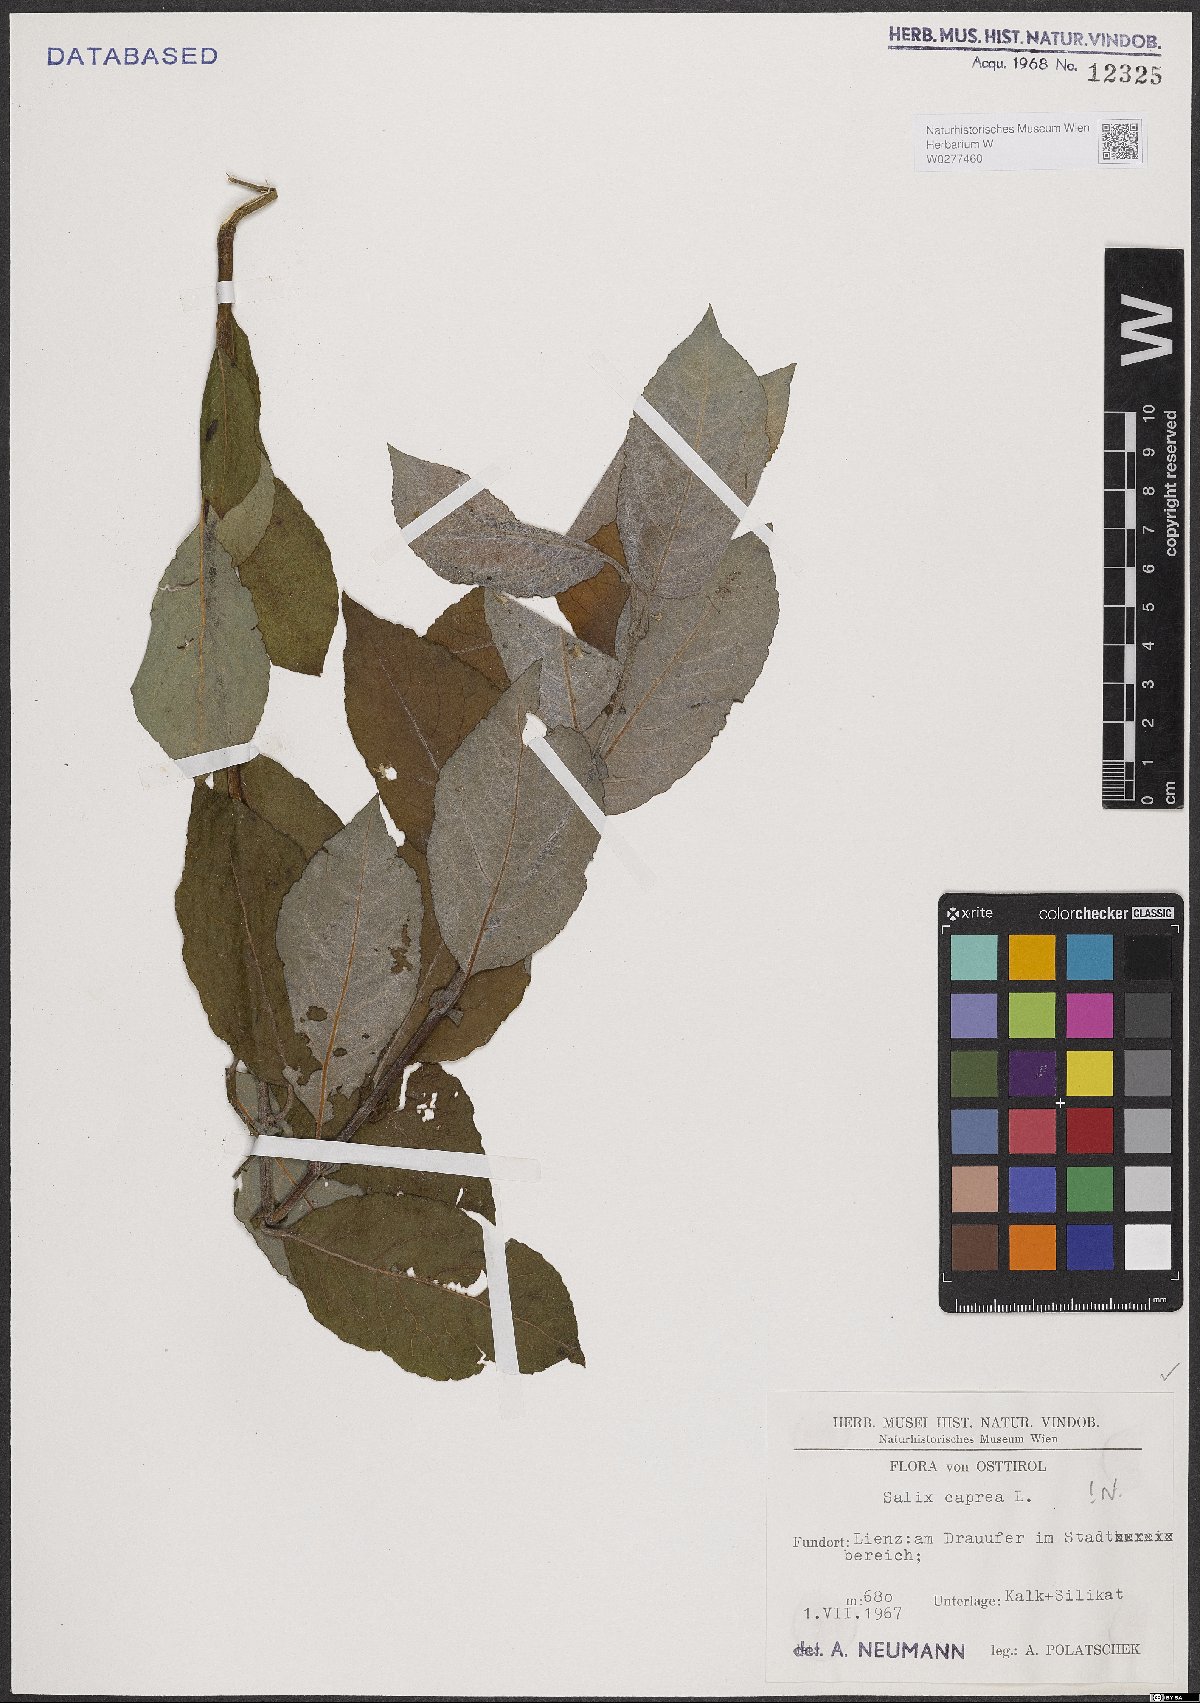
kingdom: Plantae
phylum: Tracheophyta
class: Magnoliopsida
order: Malpighiales
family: Salicaceae
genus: Salix
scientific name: Salix caprea
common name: Goat willow
